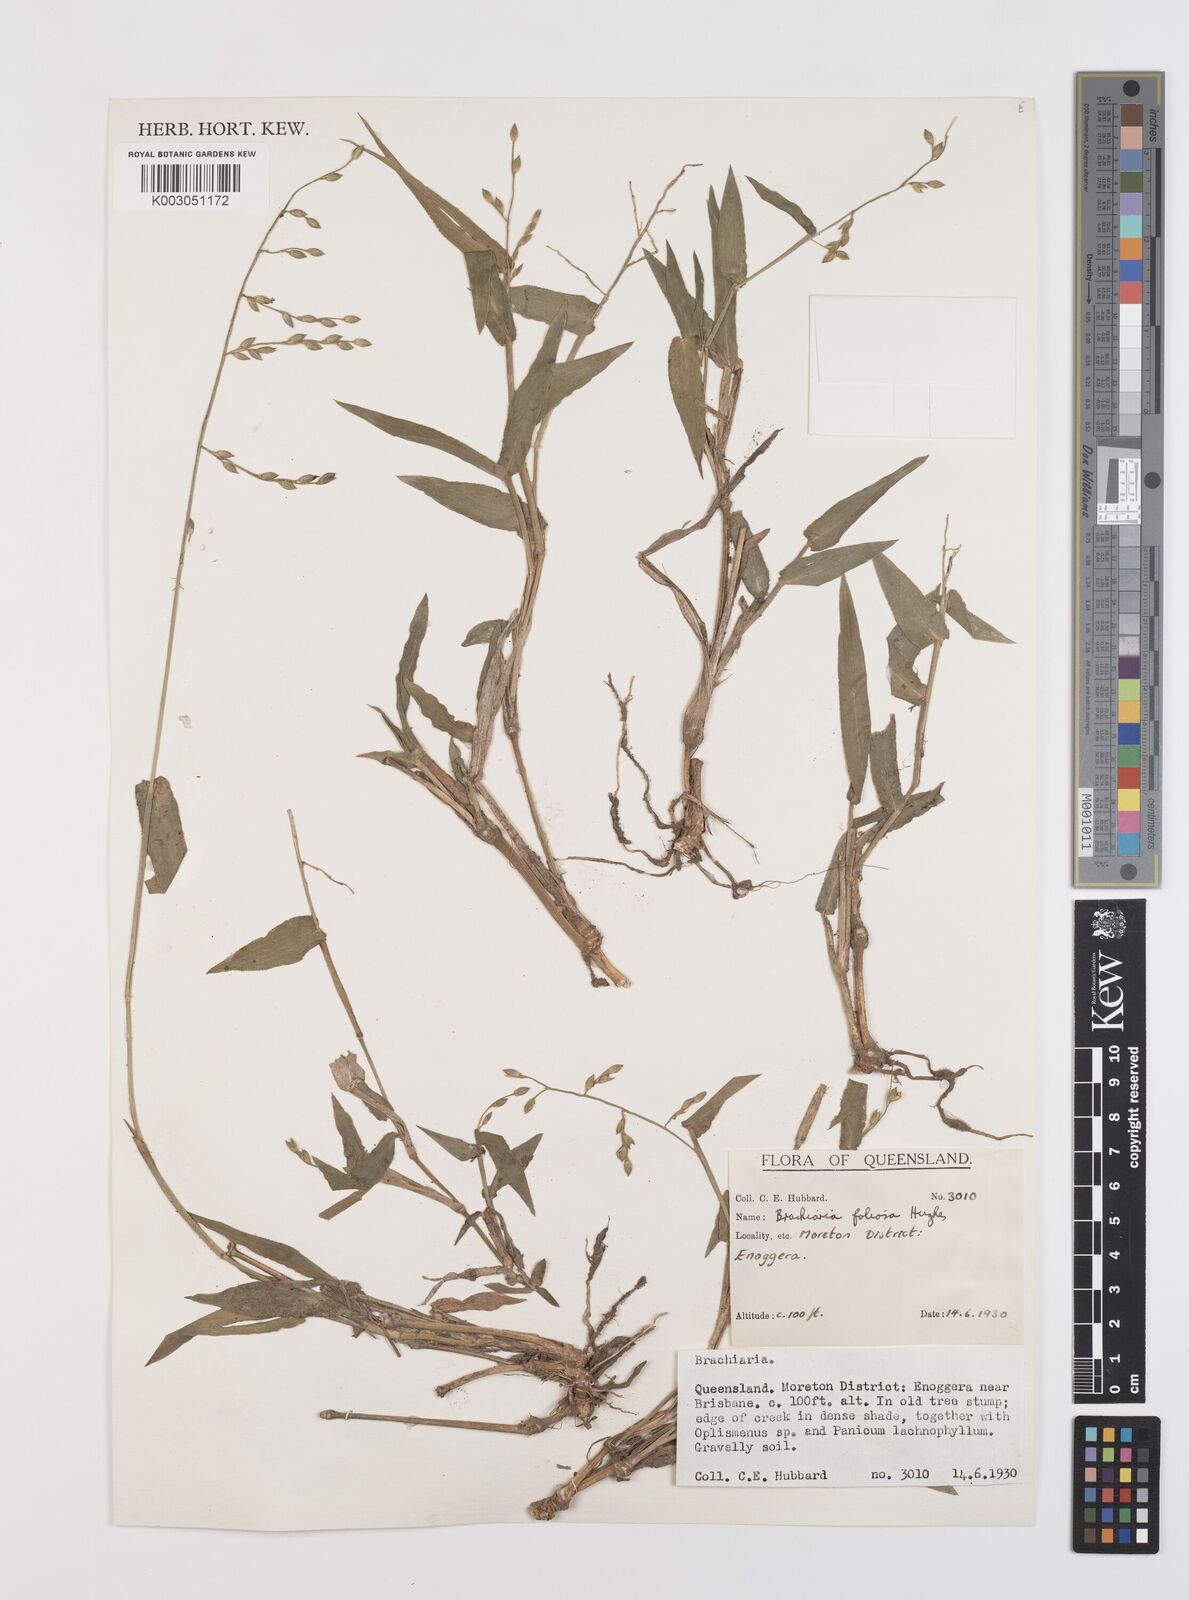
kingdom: Plantae
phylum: Tracheophyta
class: Liliopsida
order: Poales
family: Poaceae
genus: Urochloa
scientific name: Urochloa foliosa
